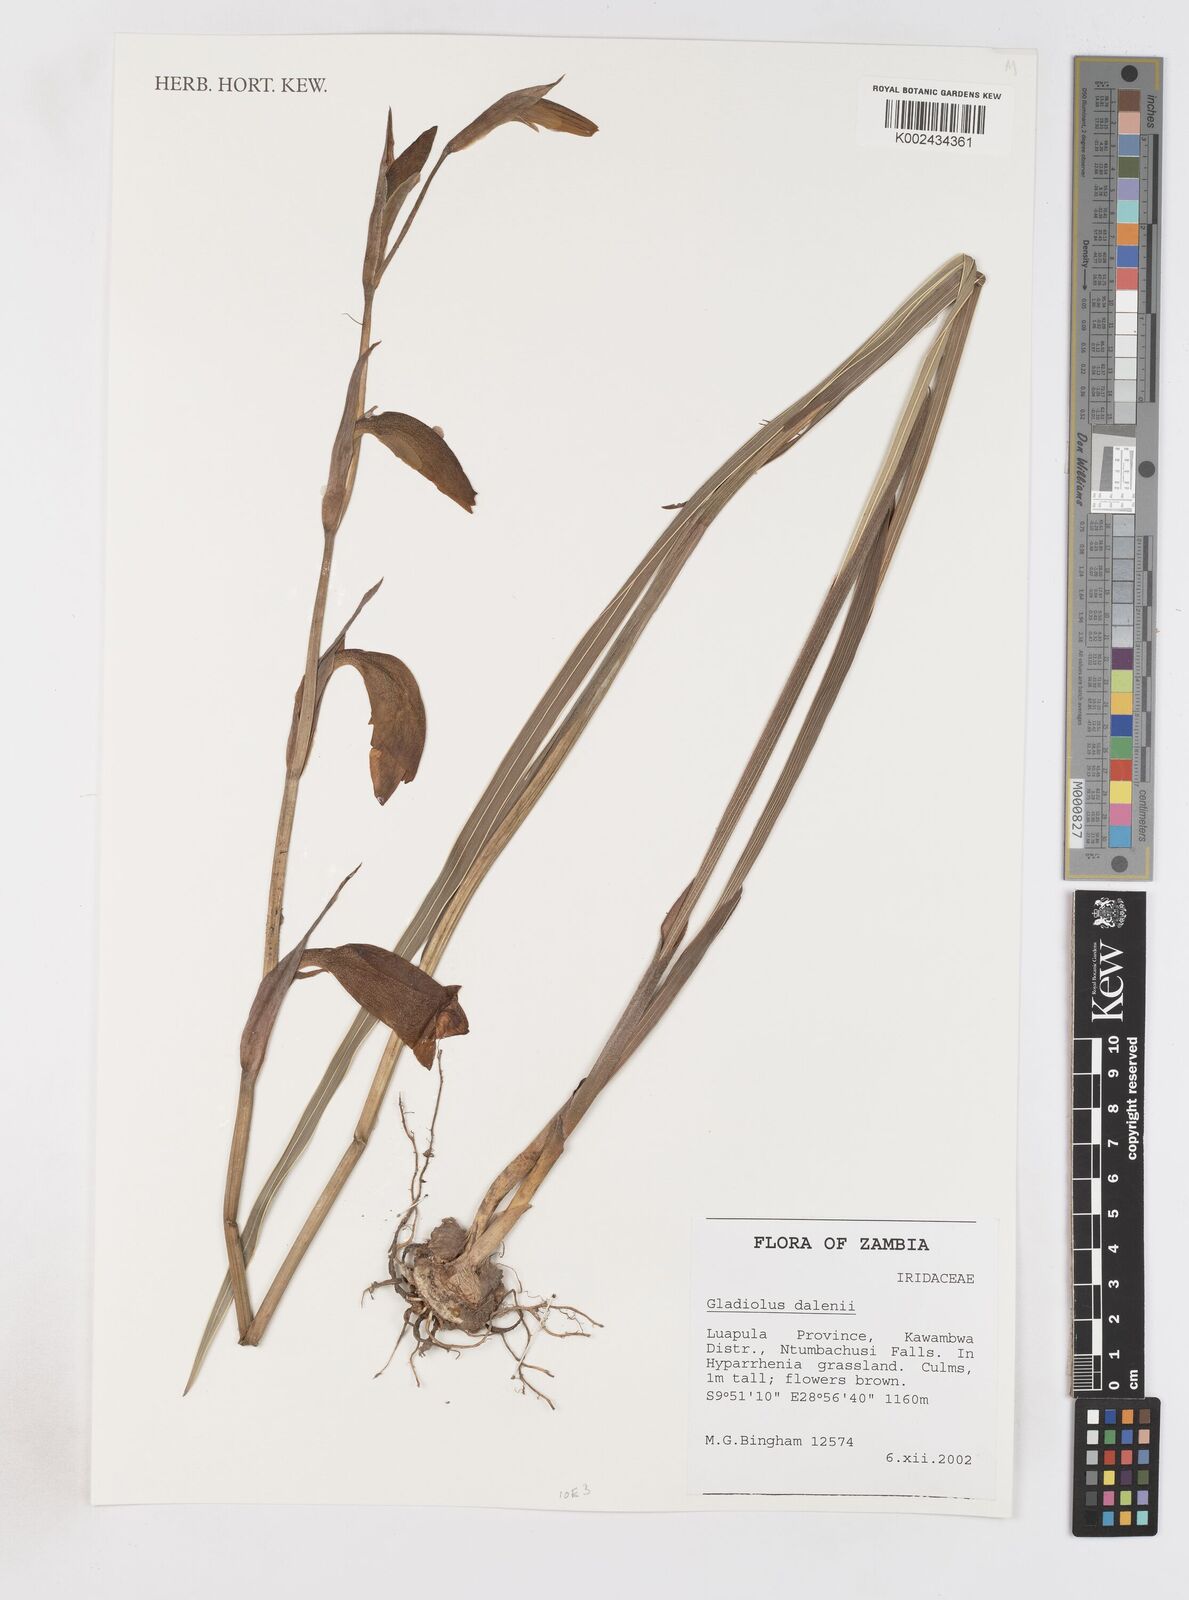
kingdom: Plantae
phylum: Tracheophyta
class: Liliopsida
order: Asparagales
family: Iridaceae
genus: Gladiolus
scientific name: Gladiolus dalenii
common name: Cornflag
